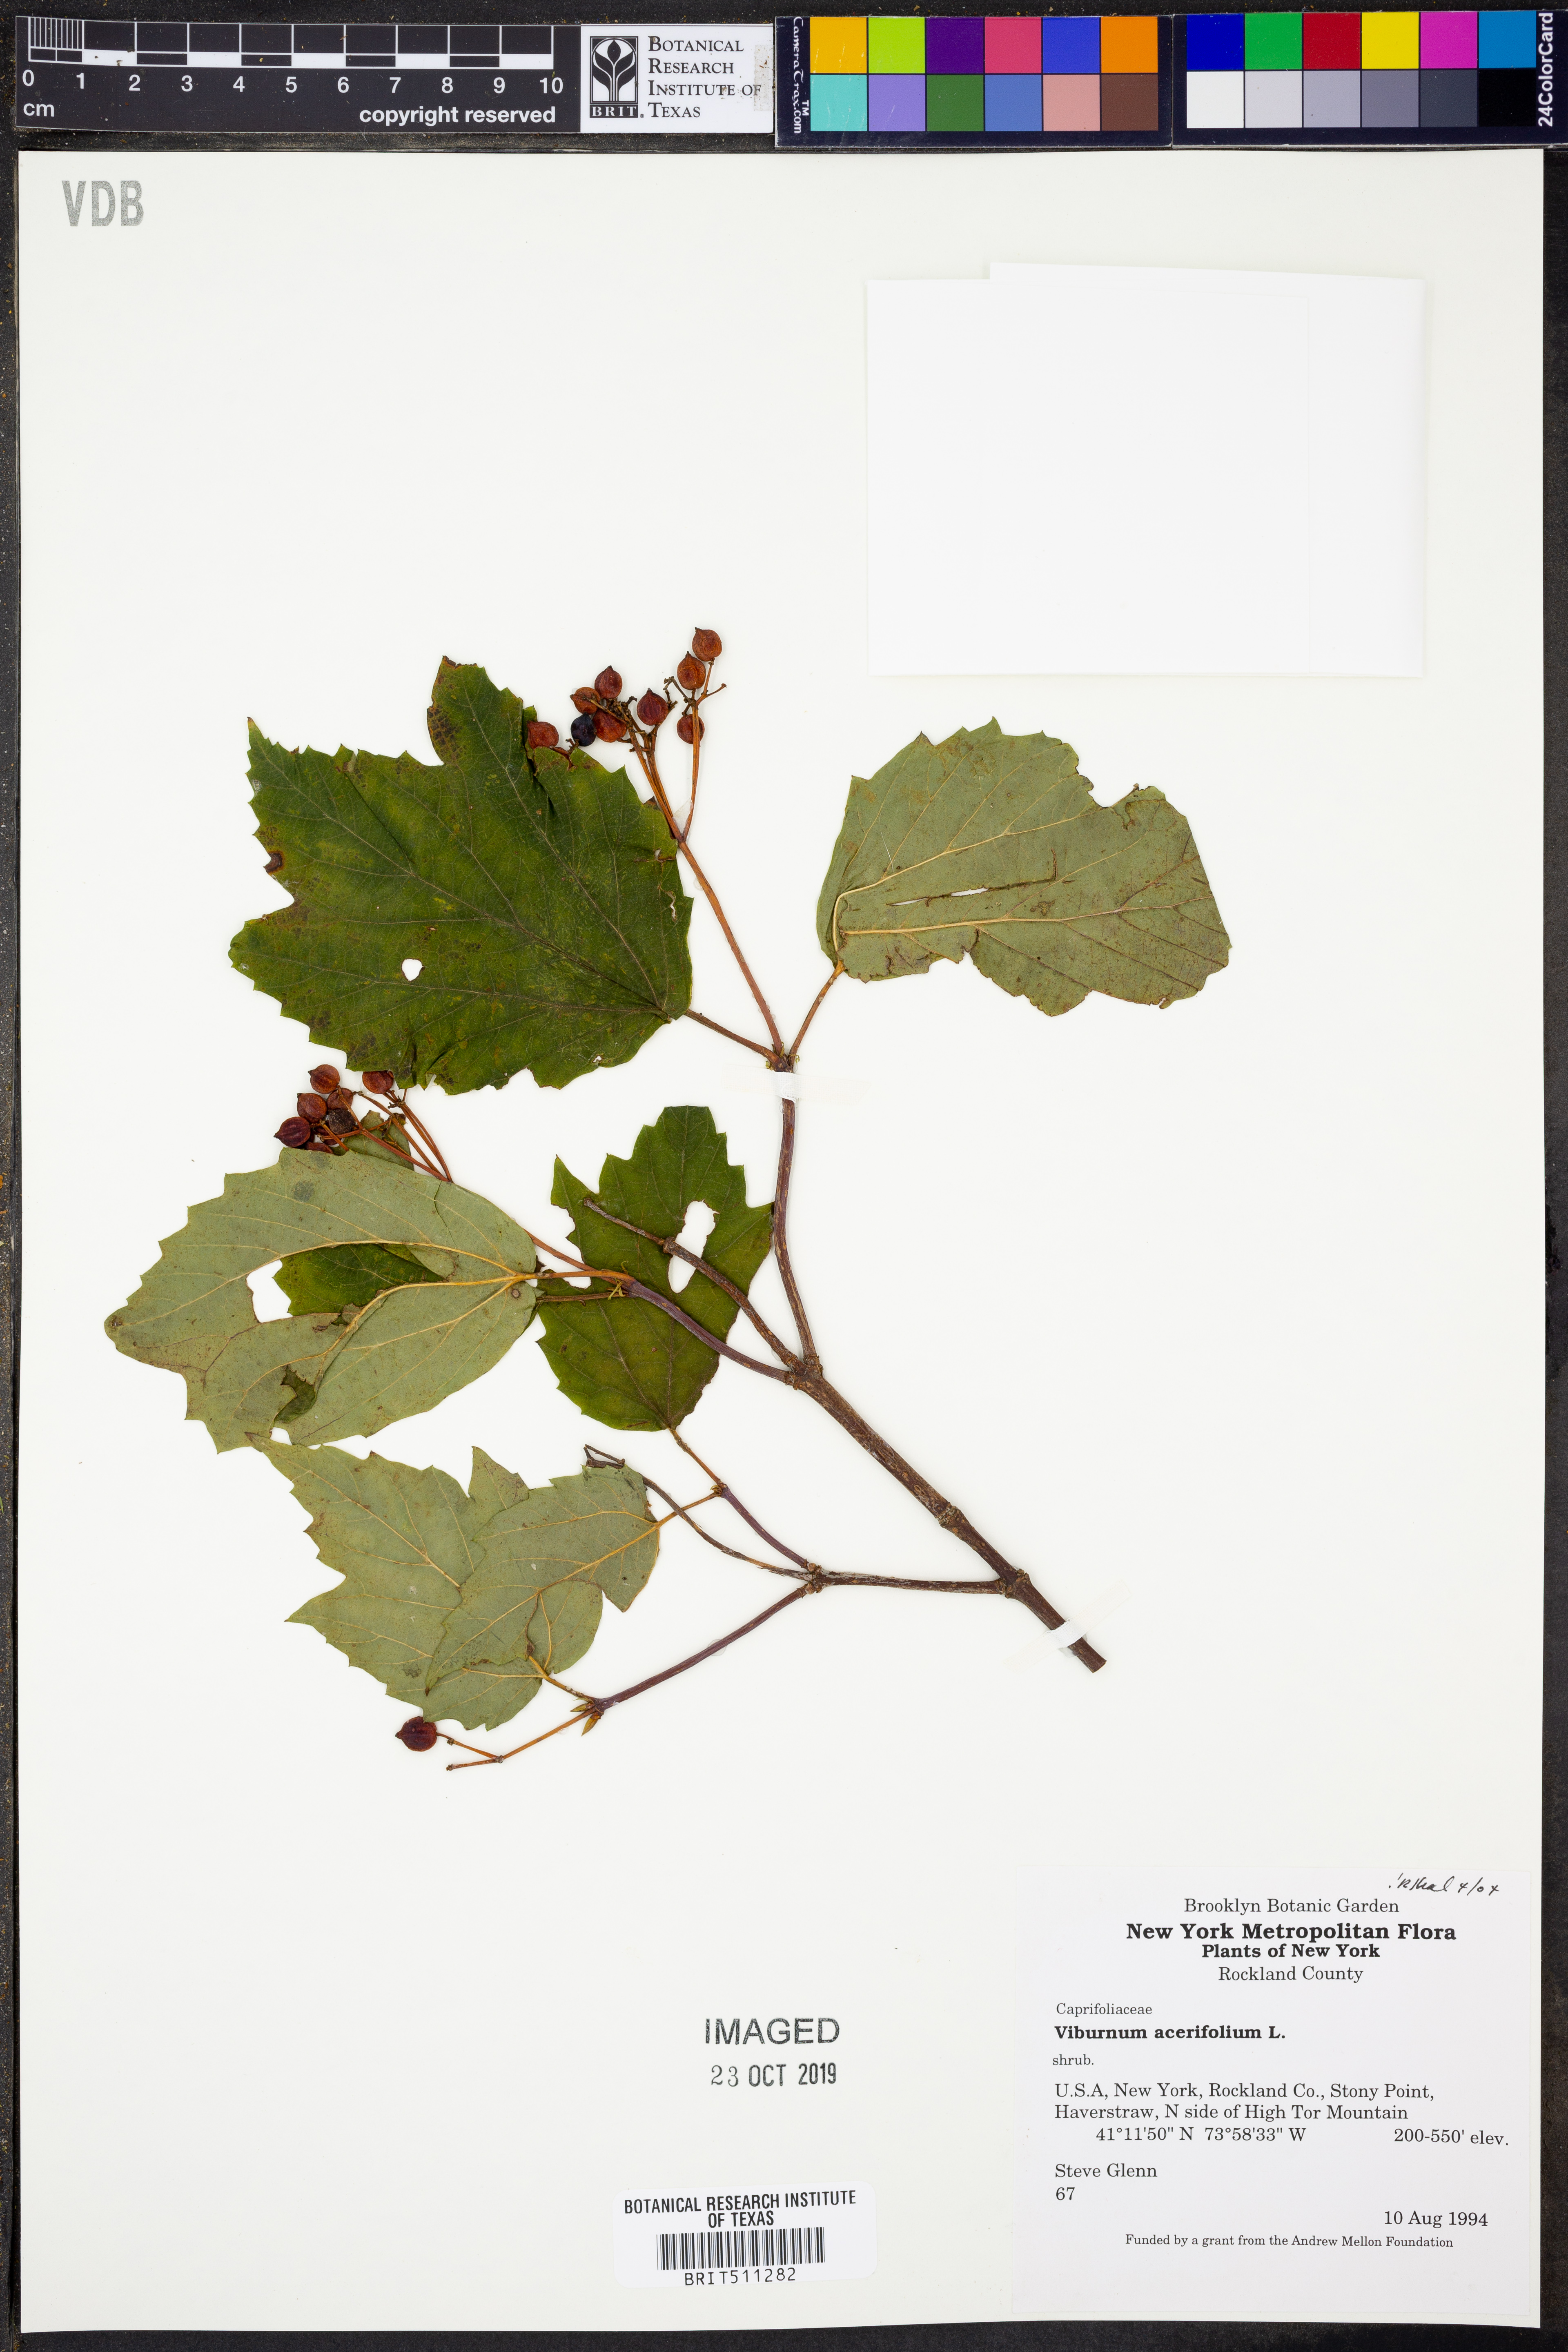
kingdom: Plantae
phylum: Tracheophyta
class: Magnoliopsida
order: Dipsacales
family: Viburnaceae
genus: Viburnum
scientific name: Viburnum acerifolium
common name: Dockmackie
